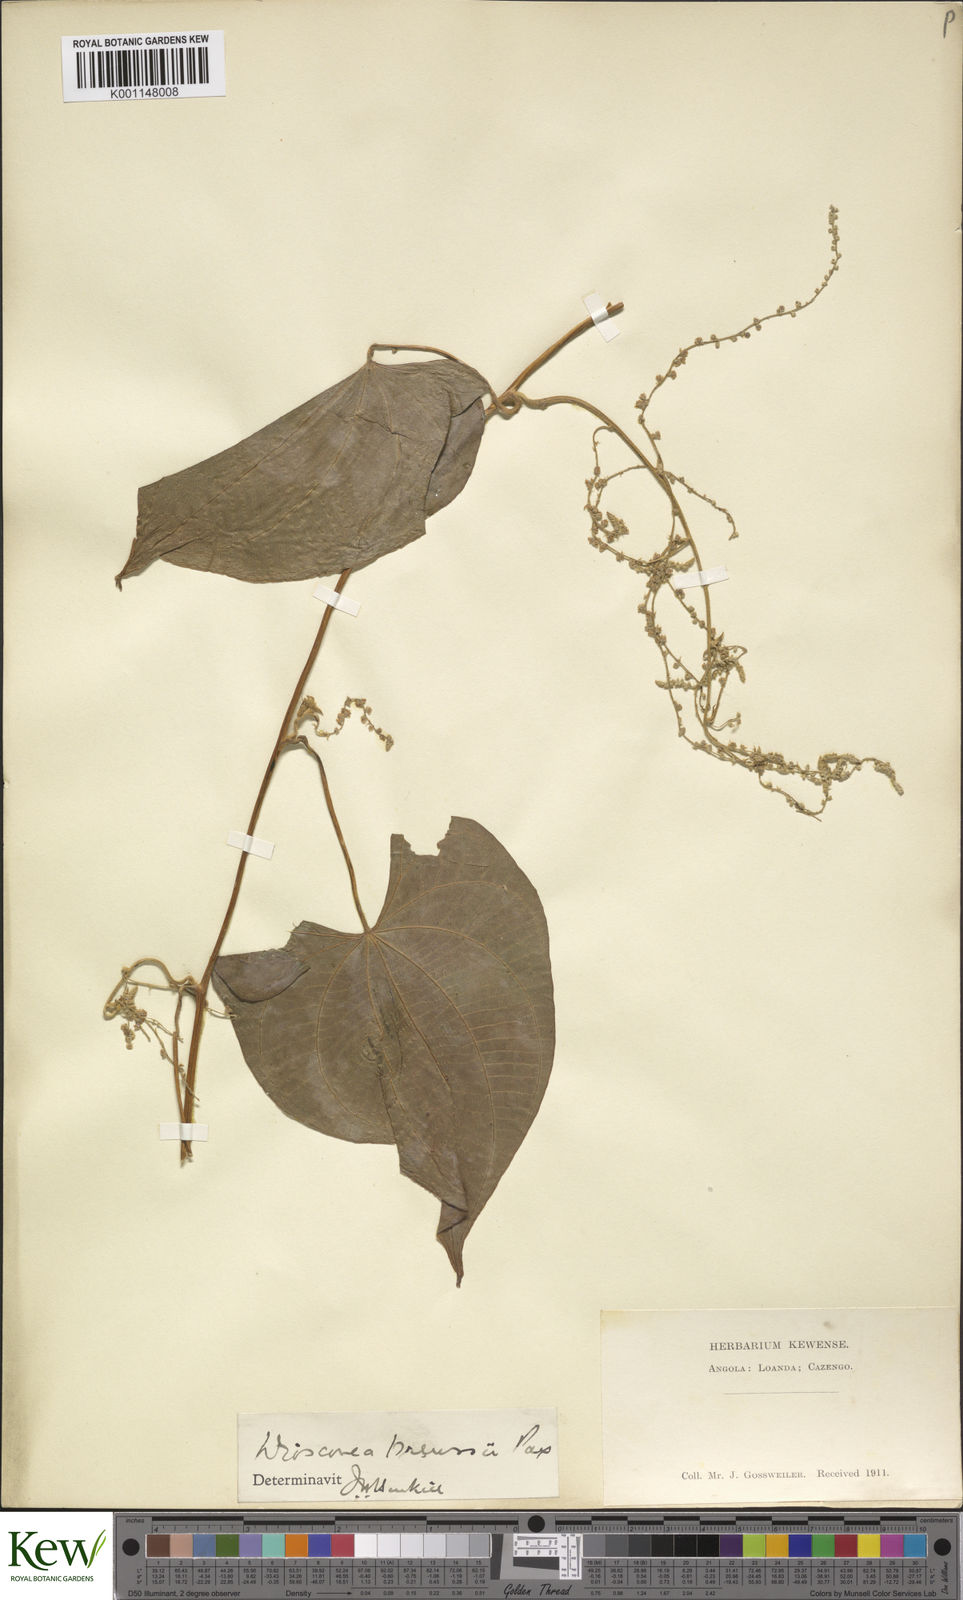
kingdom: Plantae
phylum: Tracheophyta
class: Liliopsida
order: Dioscoreales
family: Dioscoreaceae
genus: Dioscorea
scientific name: Dioscorea preussii
